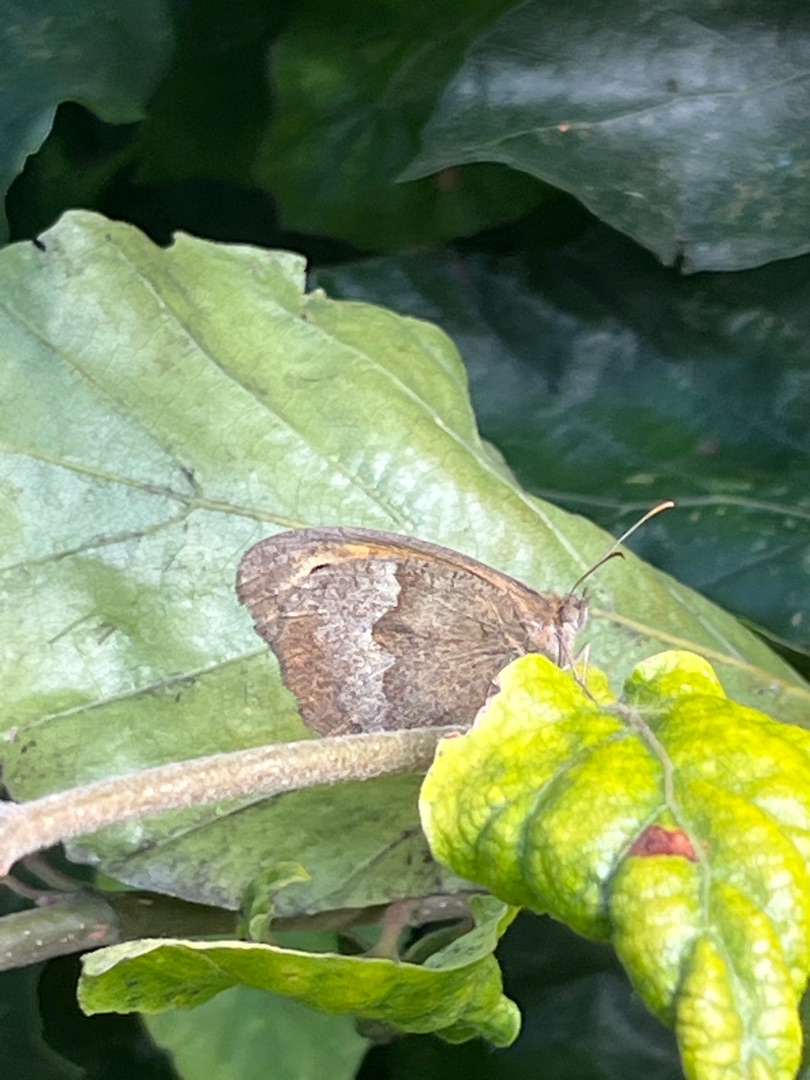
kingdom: Animalia
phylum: Arthropoda
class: Insecta
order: Lepidoptera
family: Nymphalidae
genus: Maniola
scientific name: Maniola jurtina
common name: Græsrandøje
